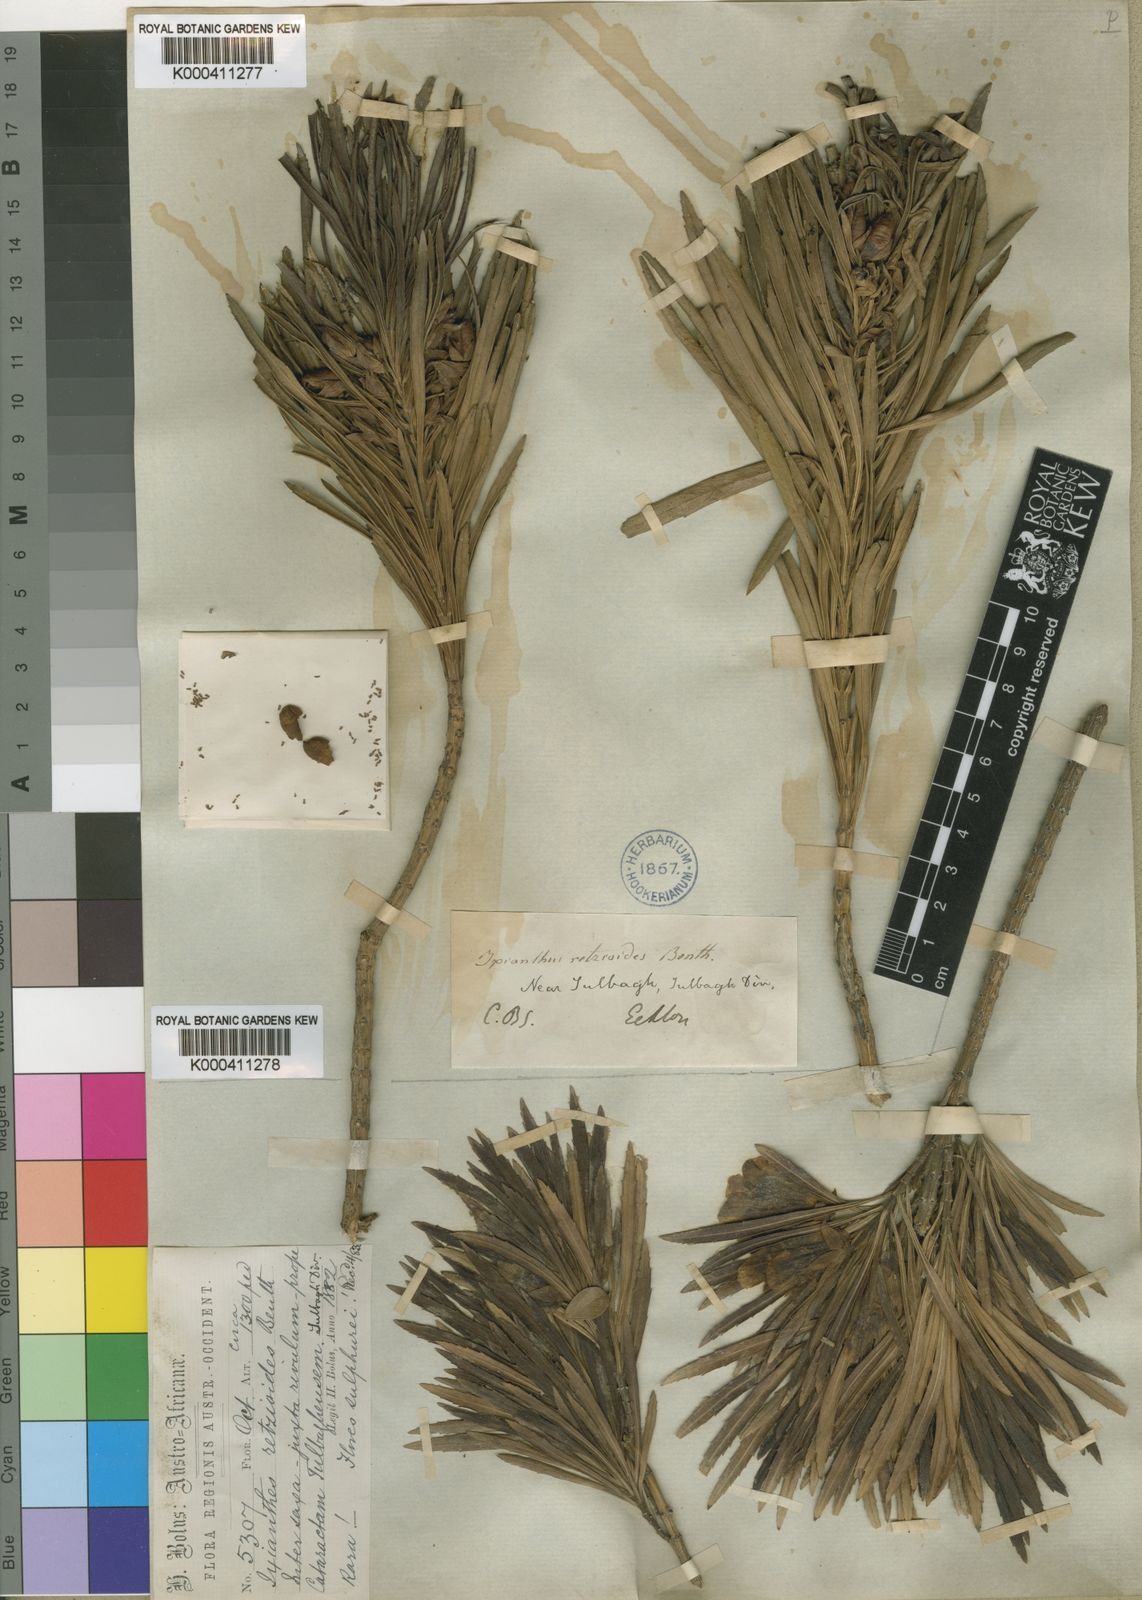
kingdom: Plantae
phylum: Tracheophyta
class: Magnoliopsida
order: Lamiales
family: Stilbaceae
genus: Ixianthes
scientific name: Ixianthes retzioides
